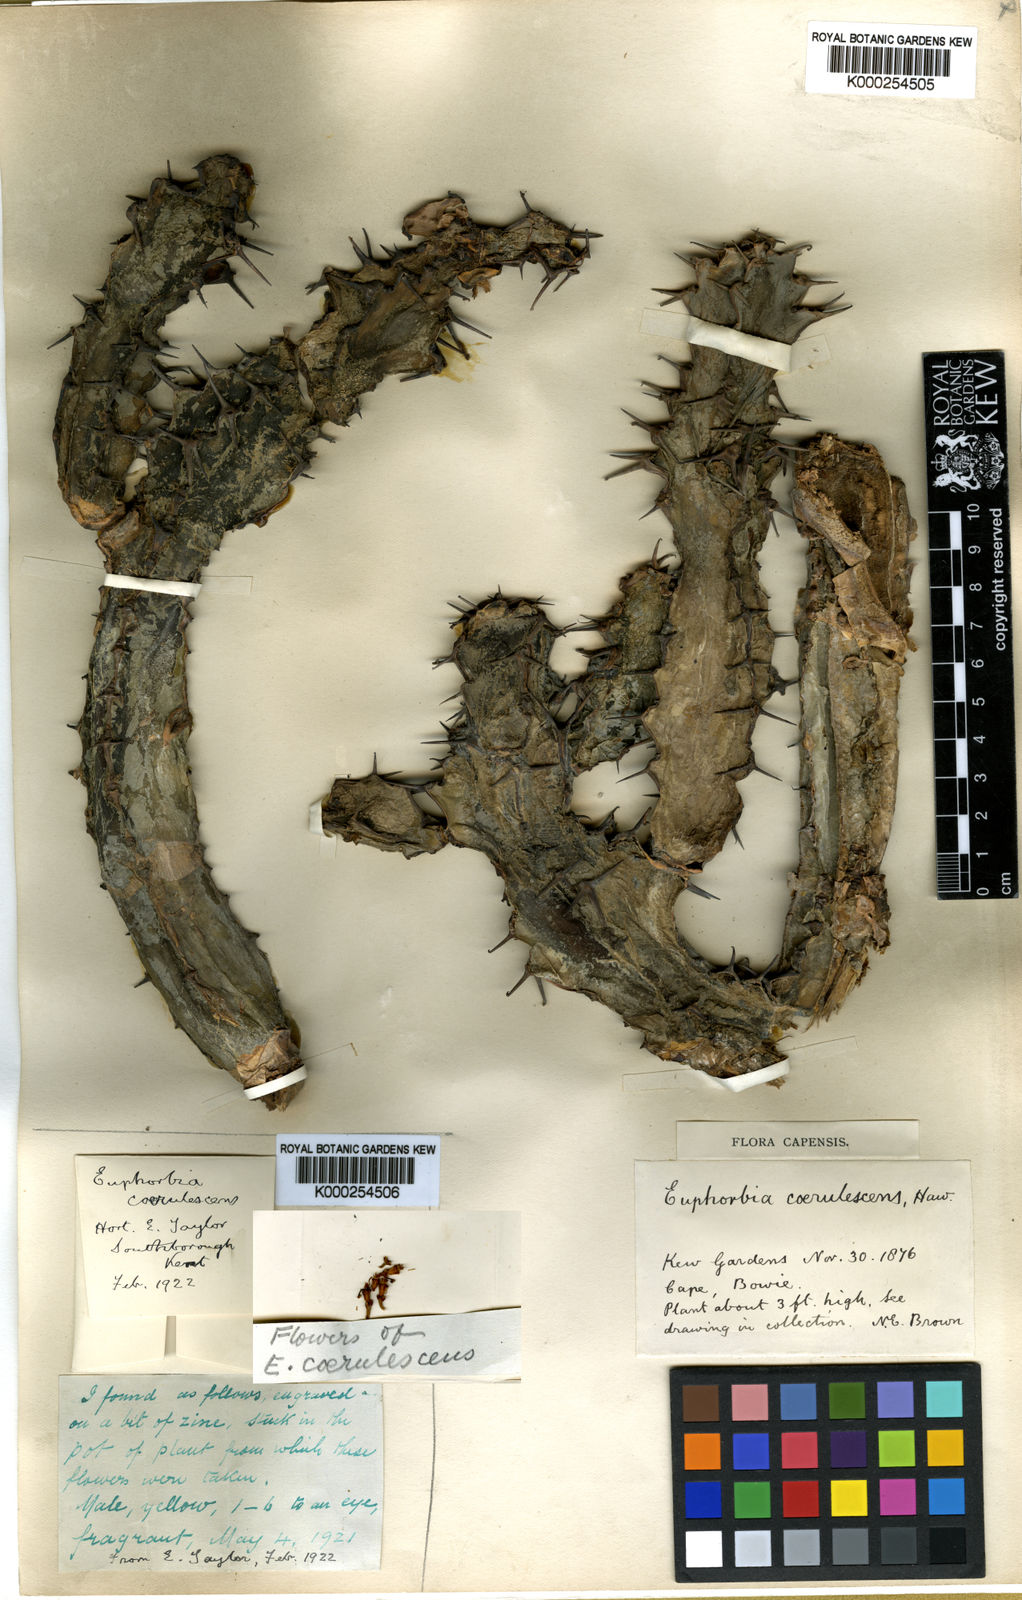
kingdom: Plantae
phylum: Tracheophyta
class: Magnoliopsida
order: Malpighiales
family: Euphorbiaceae
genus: Euphorbia
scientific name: Euphorbia caerulescens
